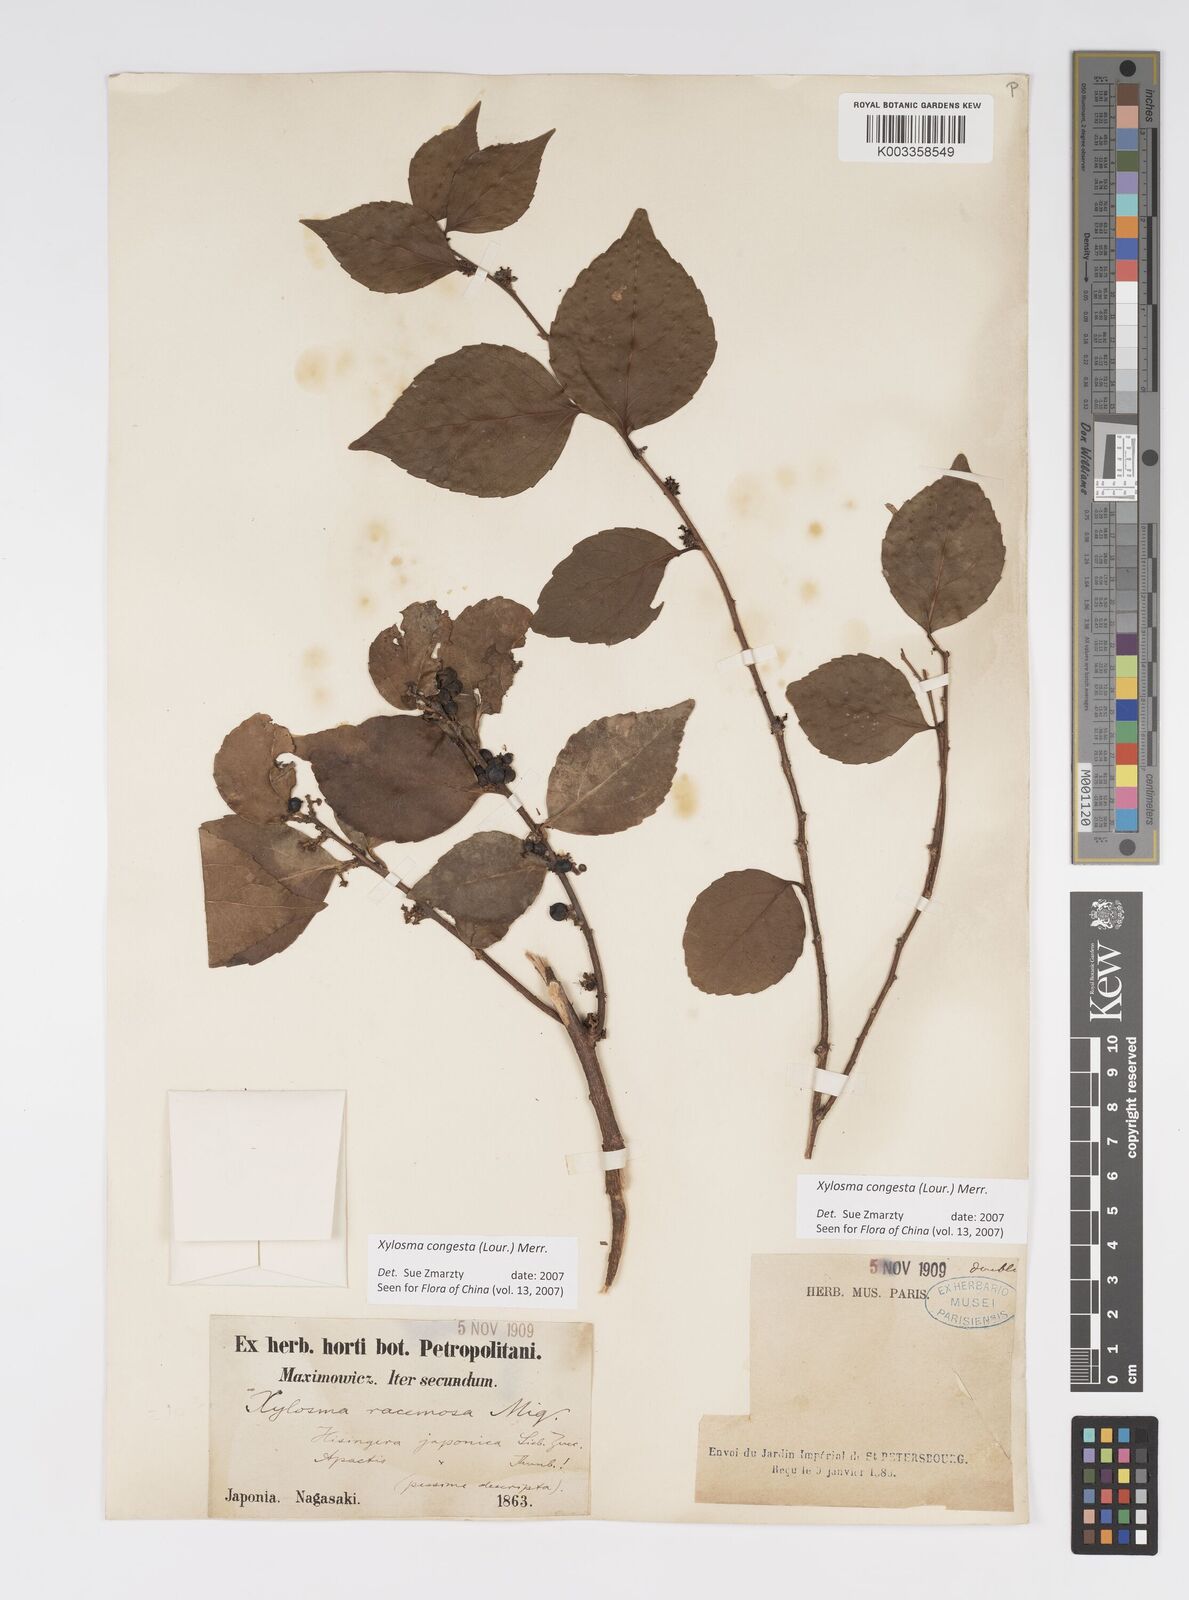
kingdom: Plantae
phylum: Tracheophyta
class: Magnoliopsida
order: Malpighiales
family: Salicaceae
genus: Xylosma
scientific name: Xylosma racemosum
